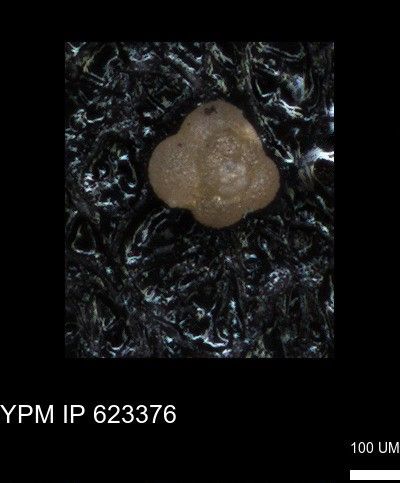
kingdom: Chromista
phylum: Foraminifera
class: Globothalamea
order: Rotaliida
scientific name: Rotaliida
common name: forams
